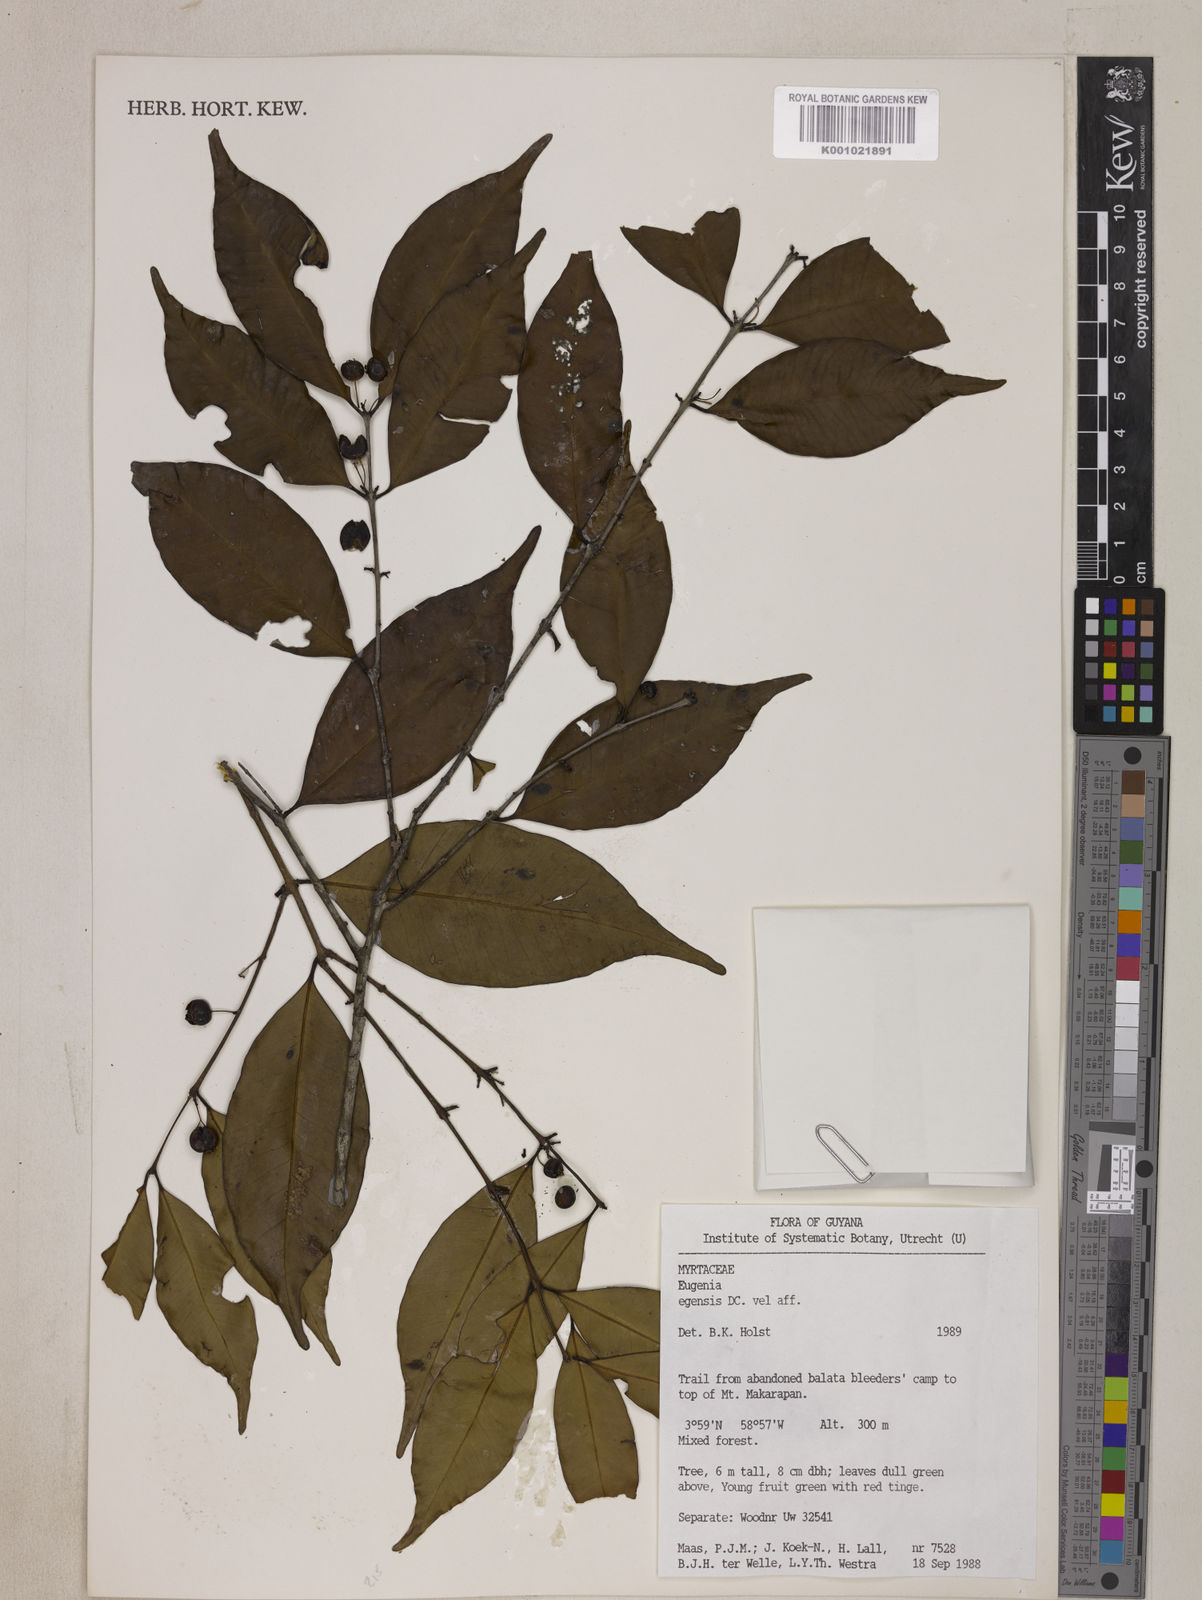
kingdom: Plantae
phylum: Tracheophyta
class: Magnoliopsida
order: Myrtales
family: Myrtaceae
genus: Eugenia
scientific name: Eugenia egensis
